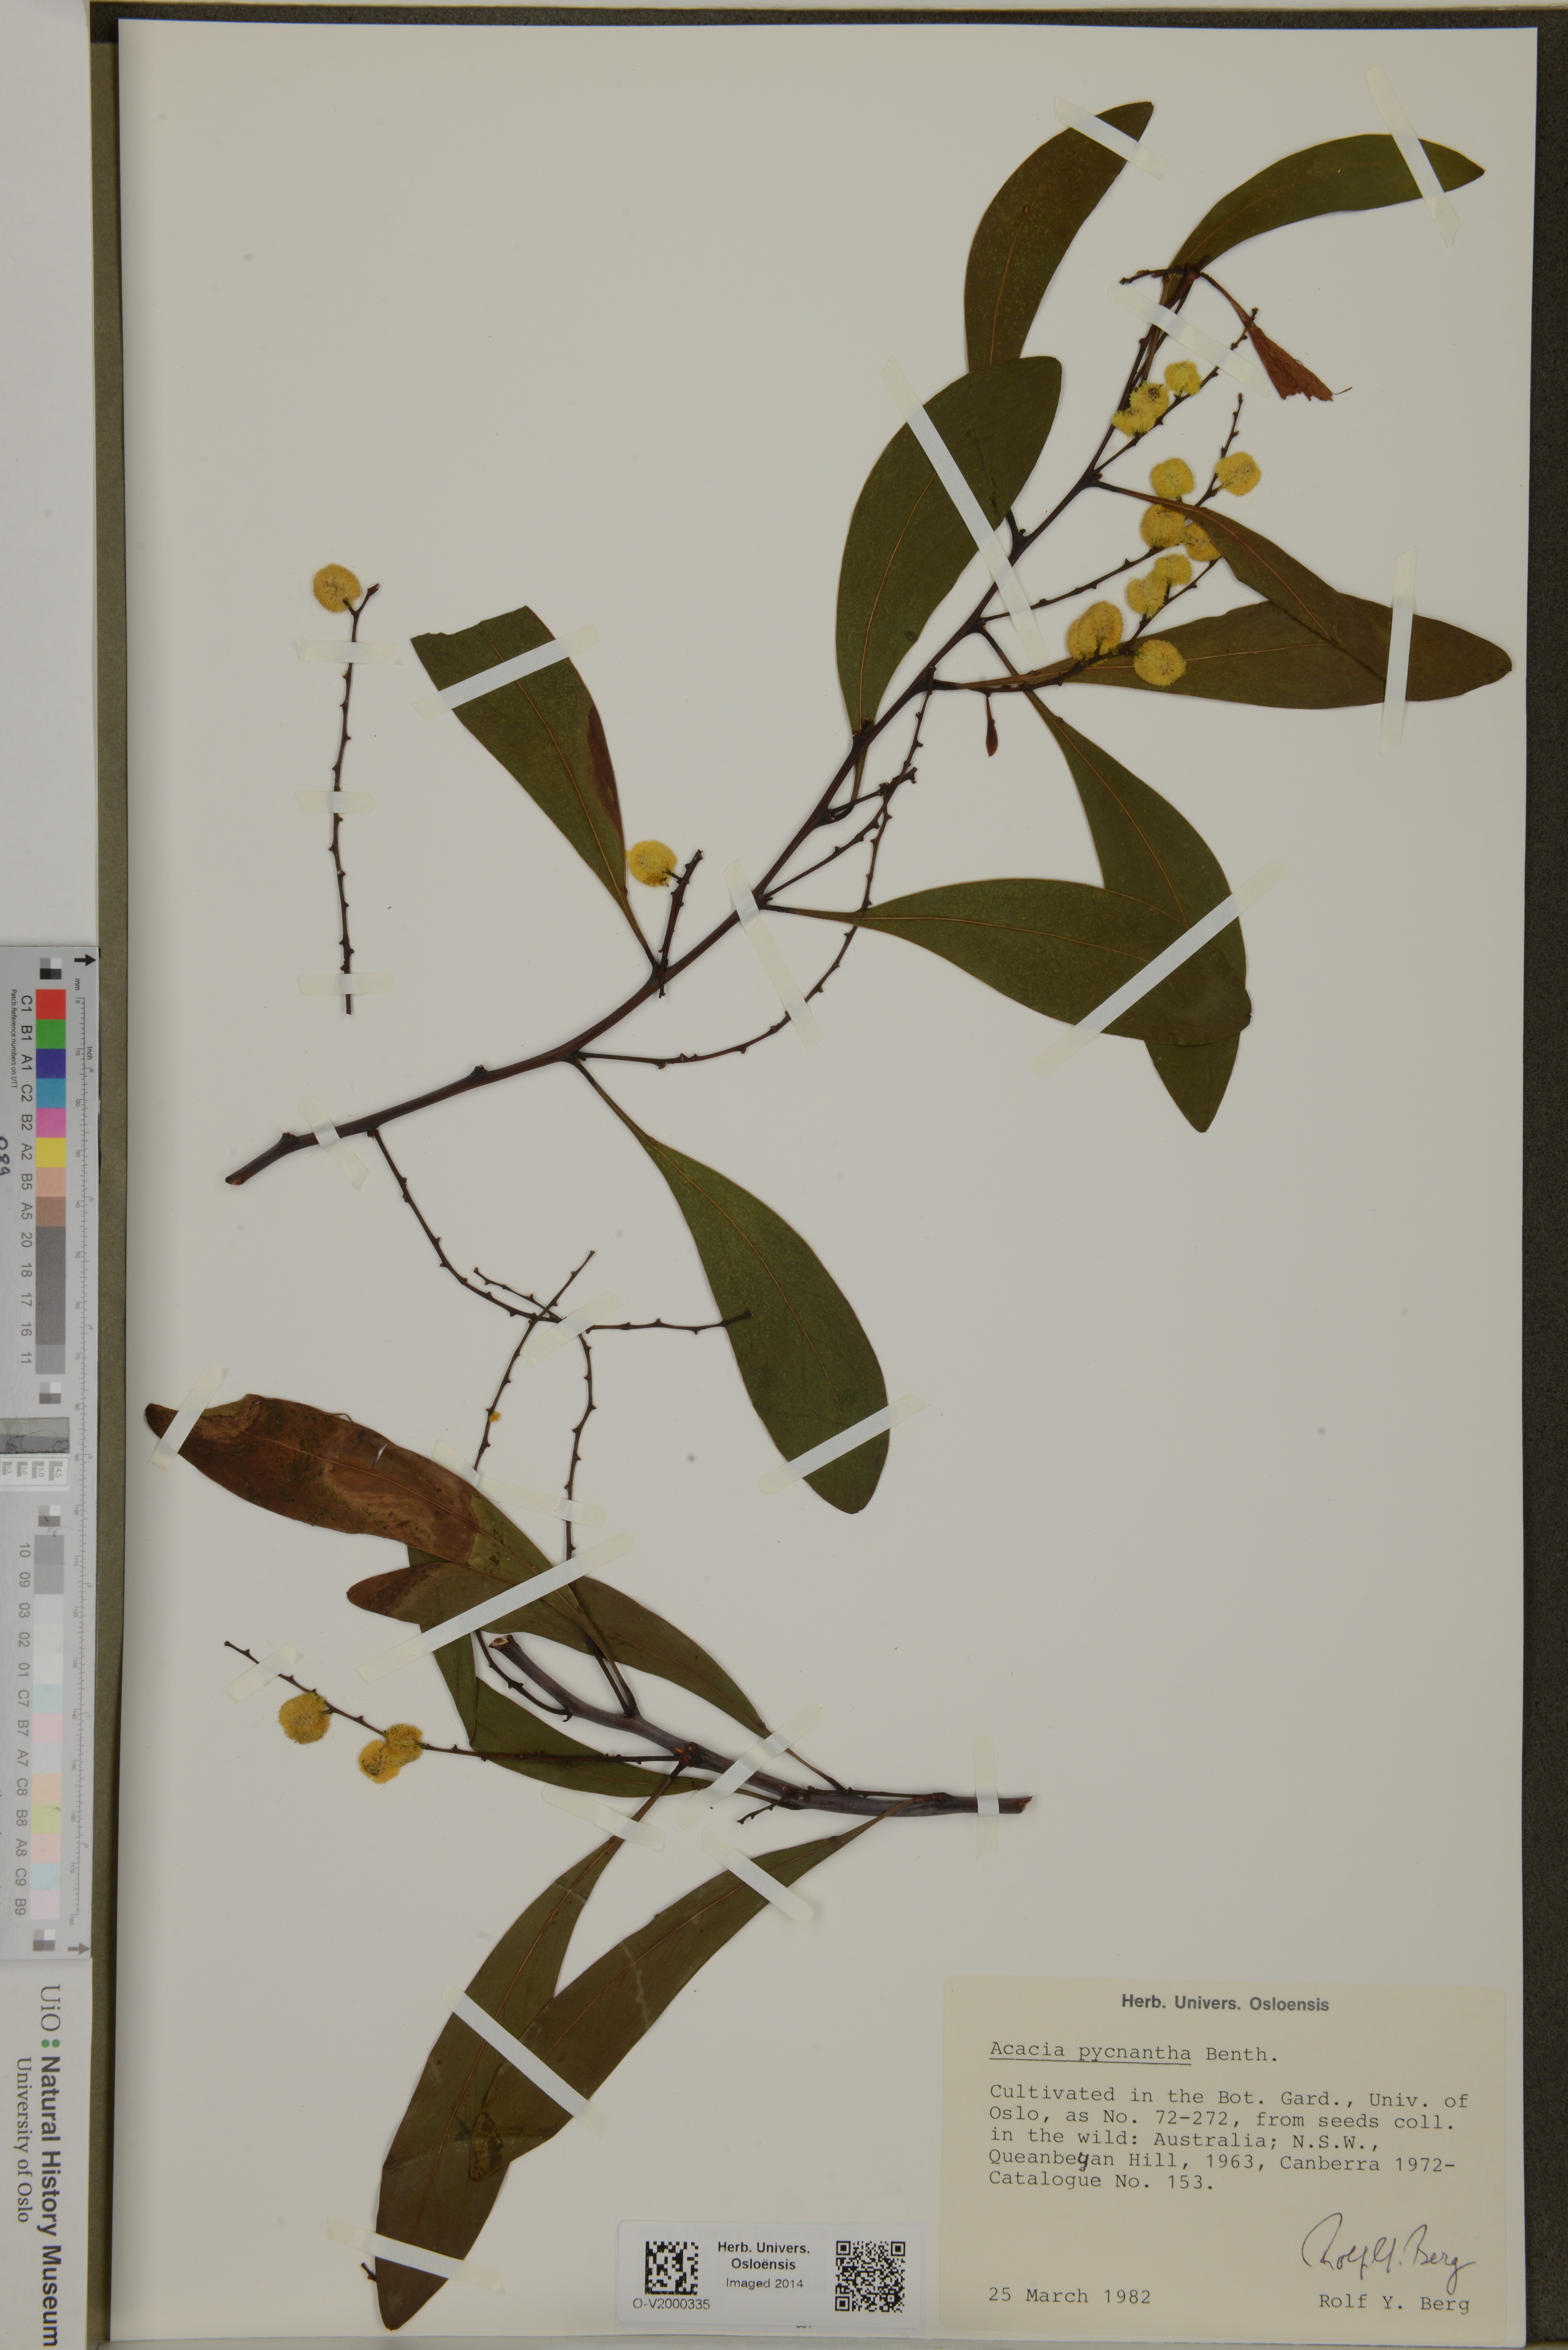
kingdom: Plantae
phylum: Tracheophyta
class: Magnoliopsida
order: Fabales
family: Fabaceae
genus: Acacia
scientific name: Acacia pycnantha
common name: Golden wattle
